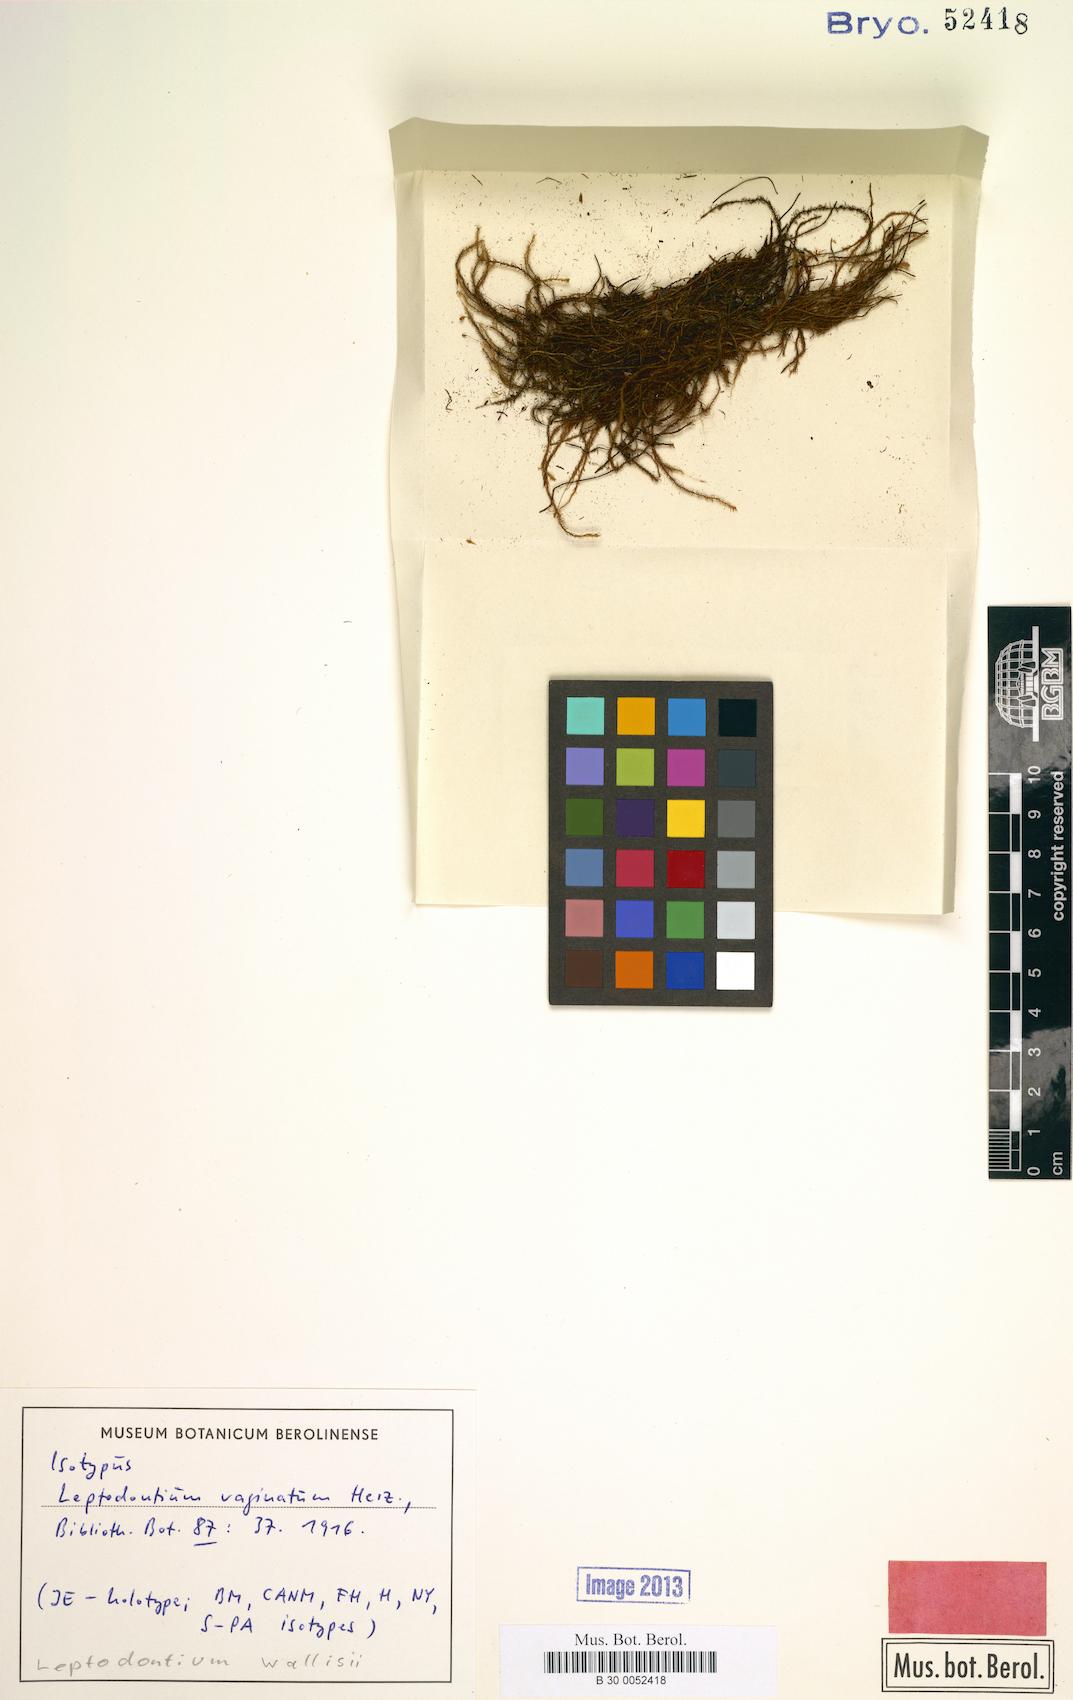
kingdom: Plantae
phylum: Bryophyta
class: Bryopsida
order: Pottiales
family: Pottiaceae
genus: Leptodontium
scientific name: Leptodontium wallisii
